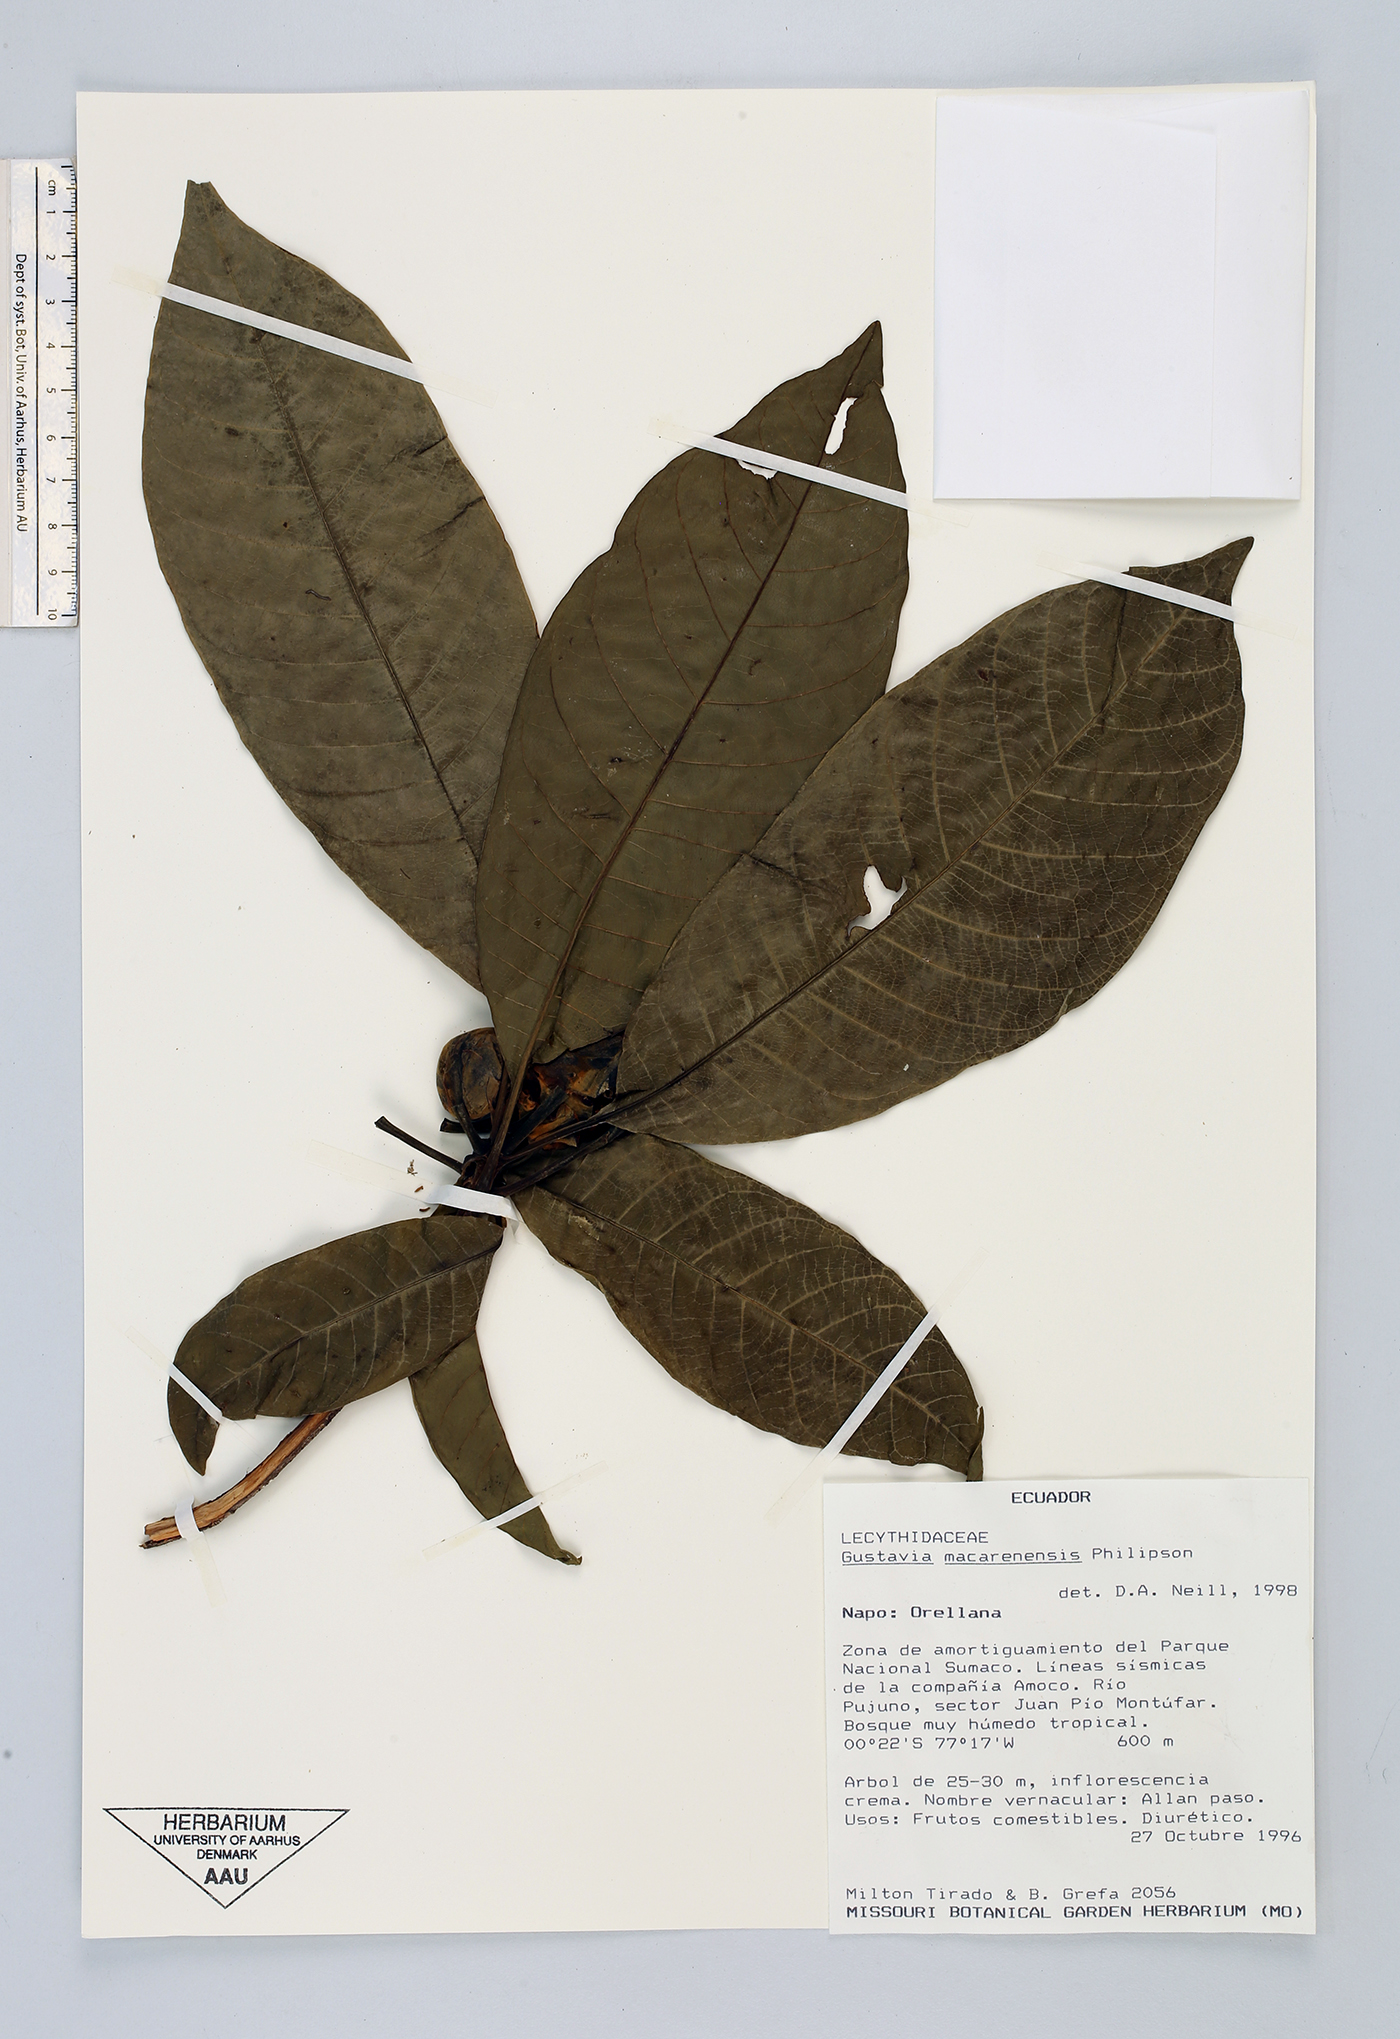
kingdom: Plantae
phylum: Tracheophyta
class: Magnoliopsida
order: Ericales
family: Lecythidaceae
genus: Gustavia
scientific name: Gustavia macarenensis
